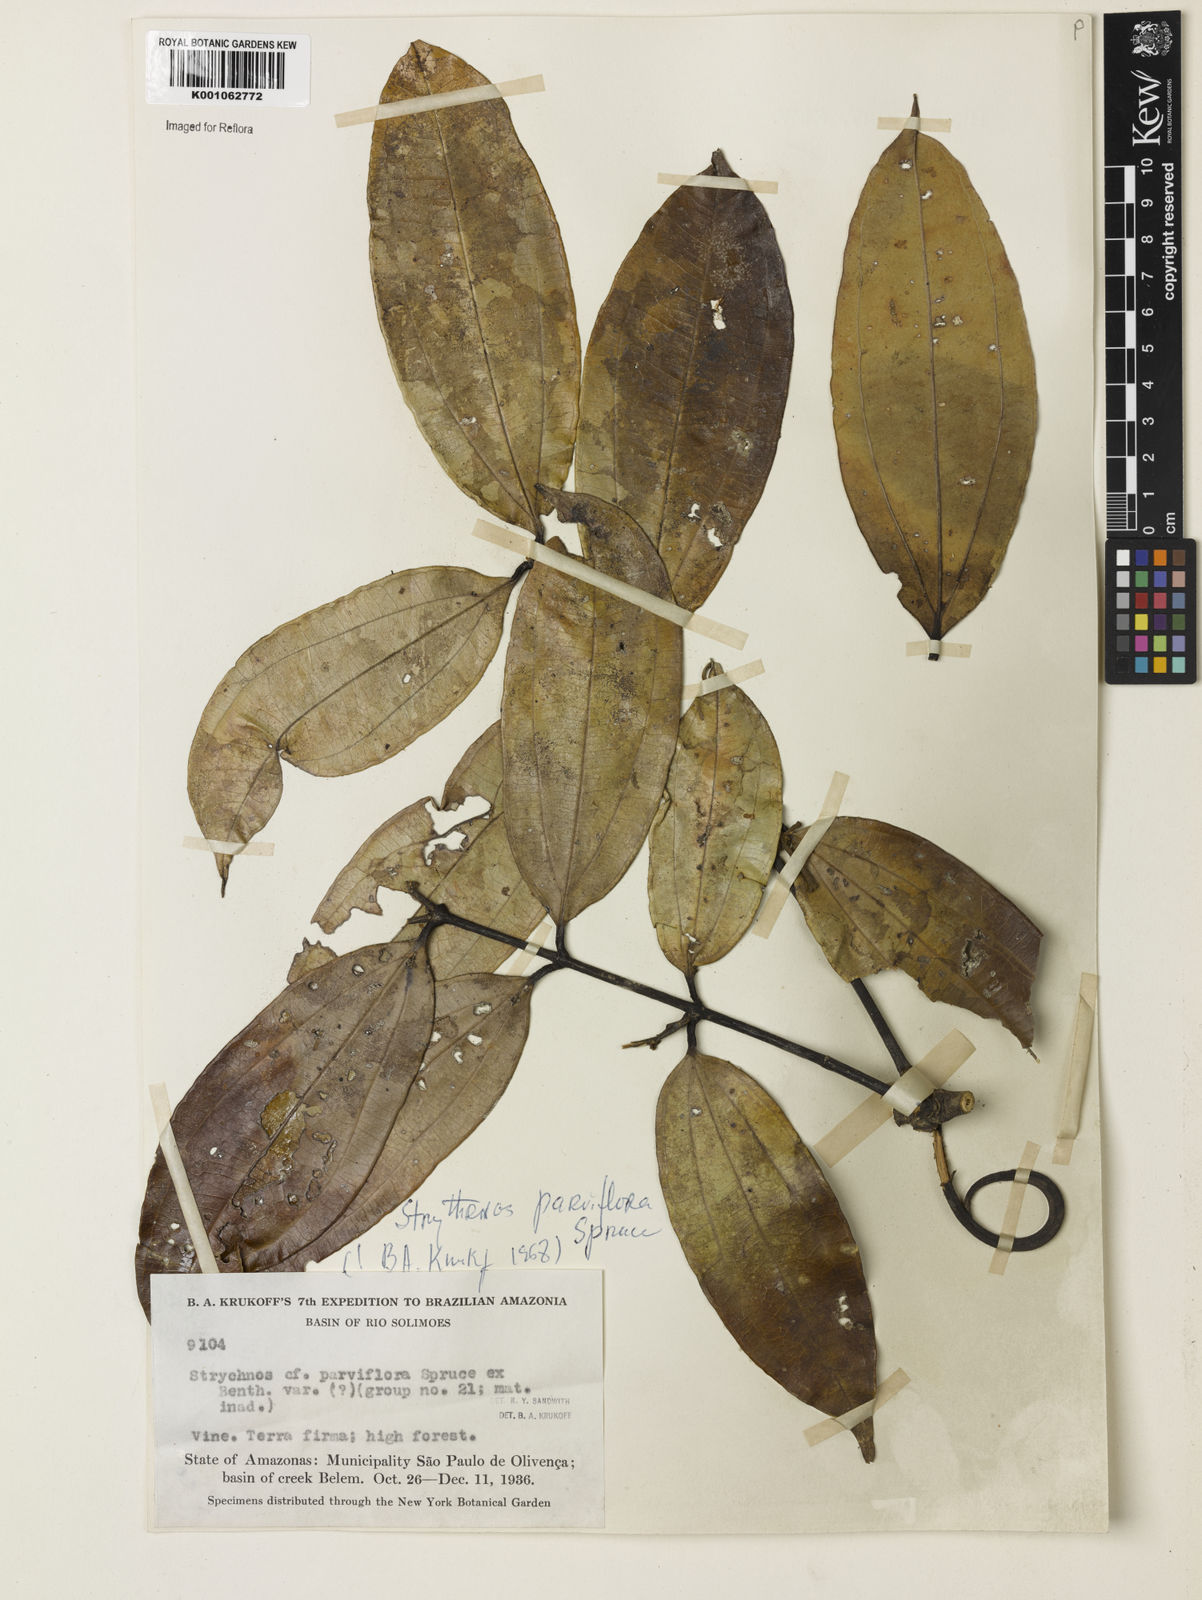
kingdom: Plantae
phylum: Tracheophyta
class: Magnoliopsida
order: Gentianales
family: Loganiaceae
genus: Strychnos
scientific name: Strychnos parviflora
